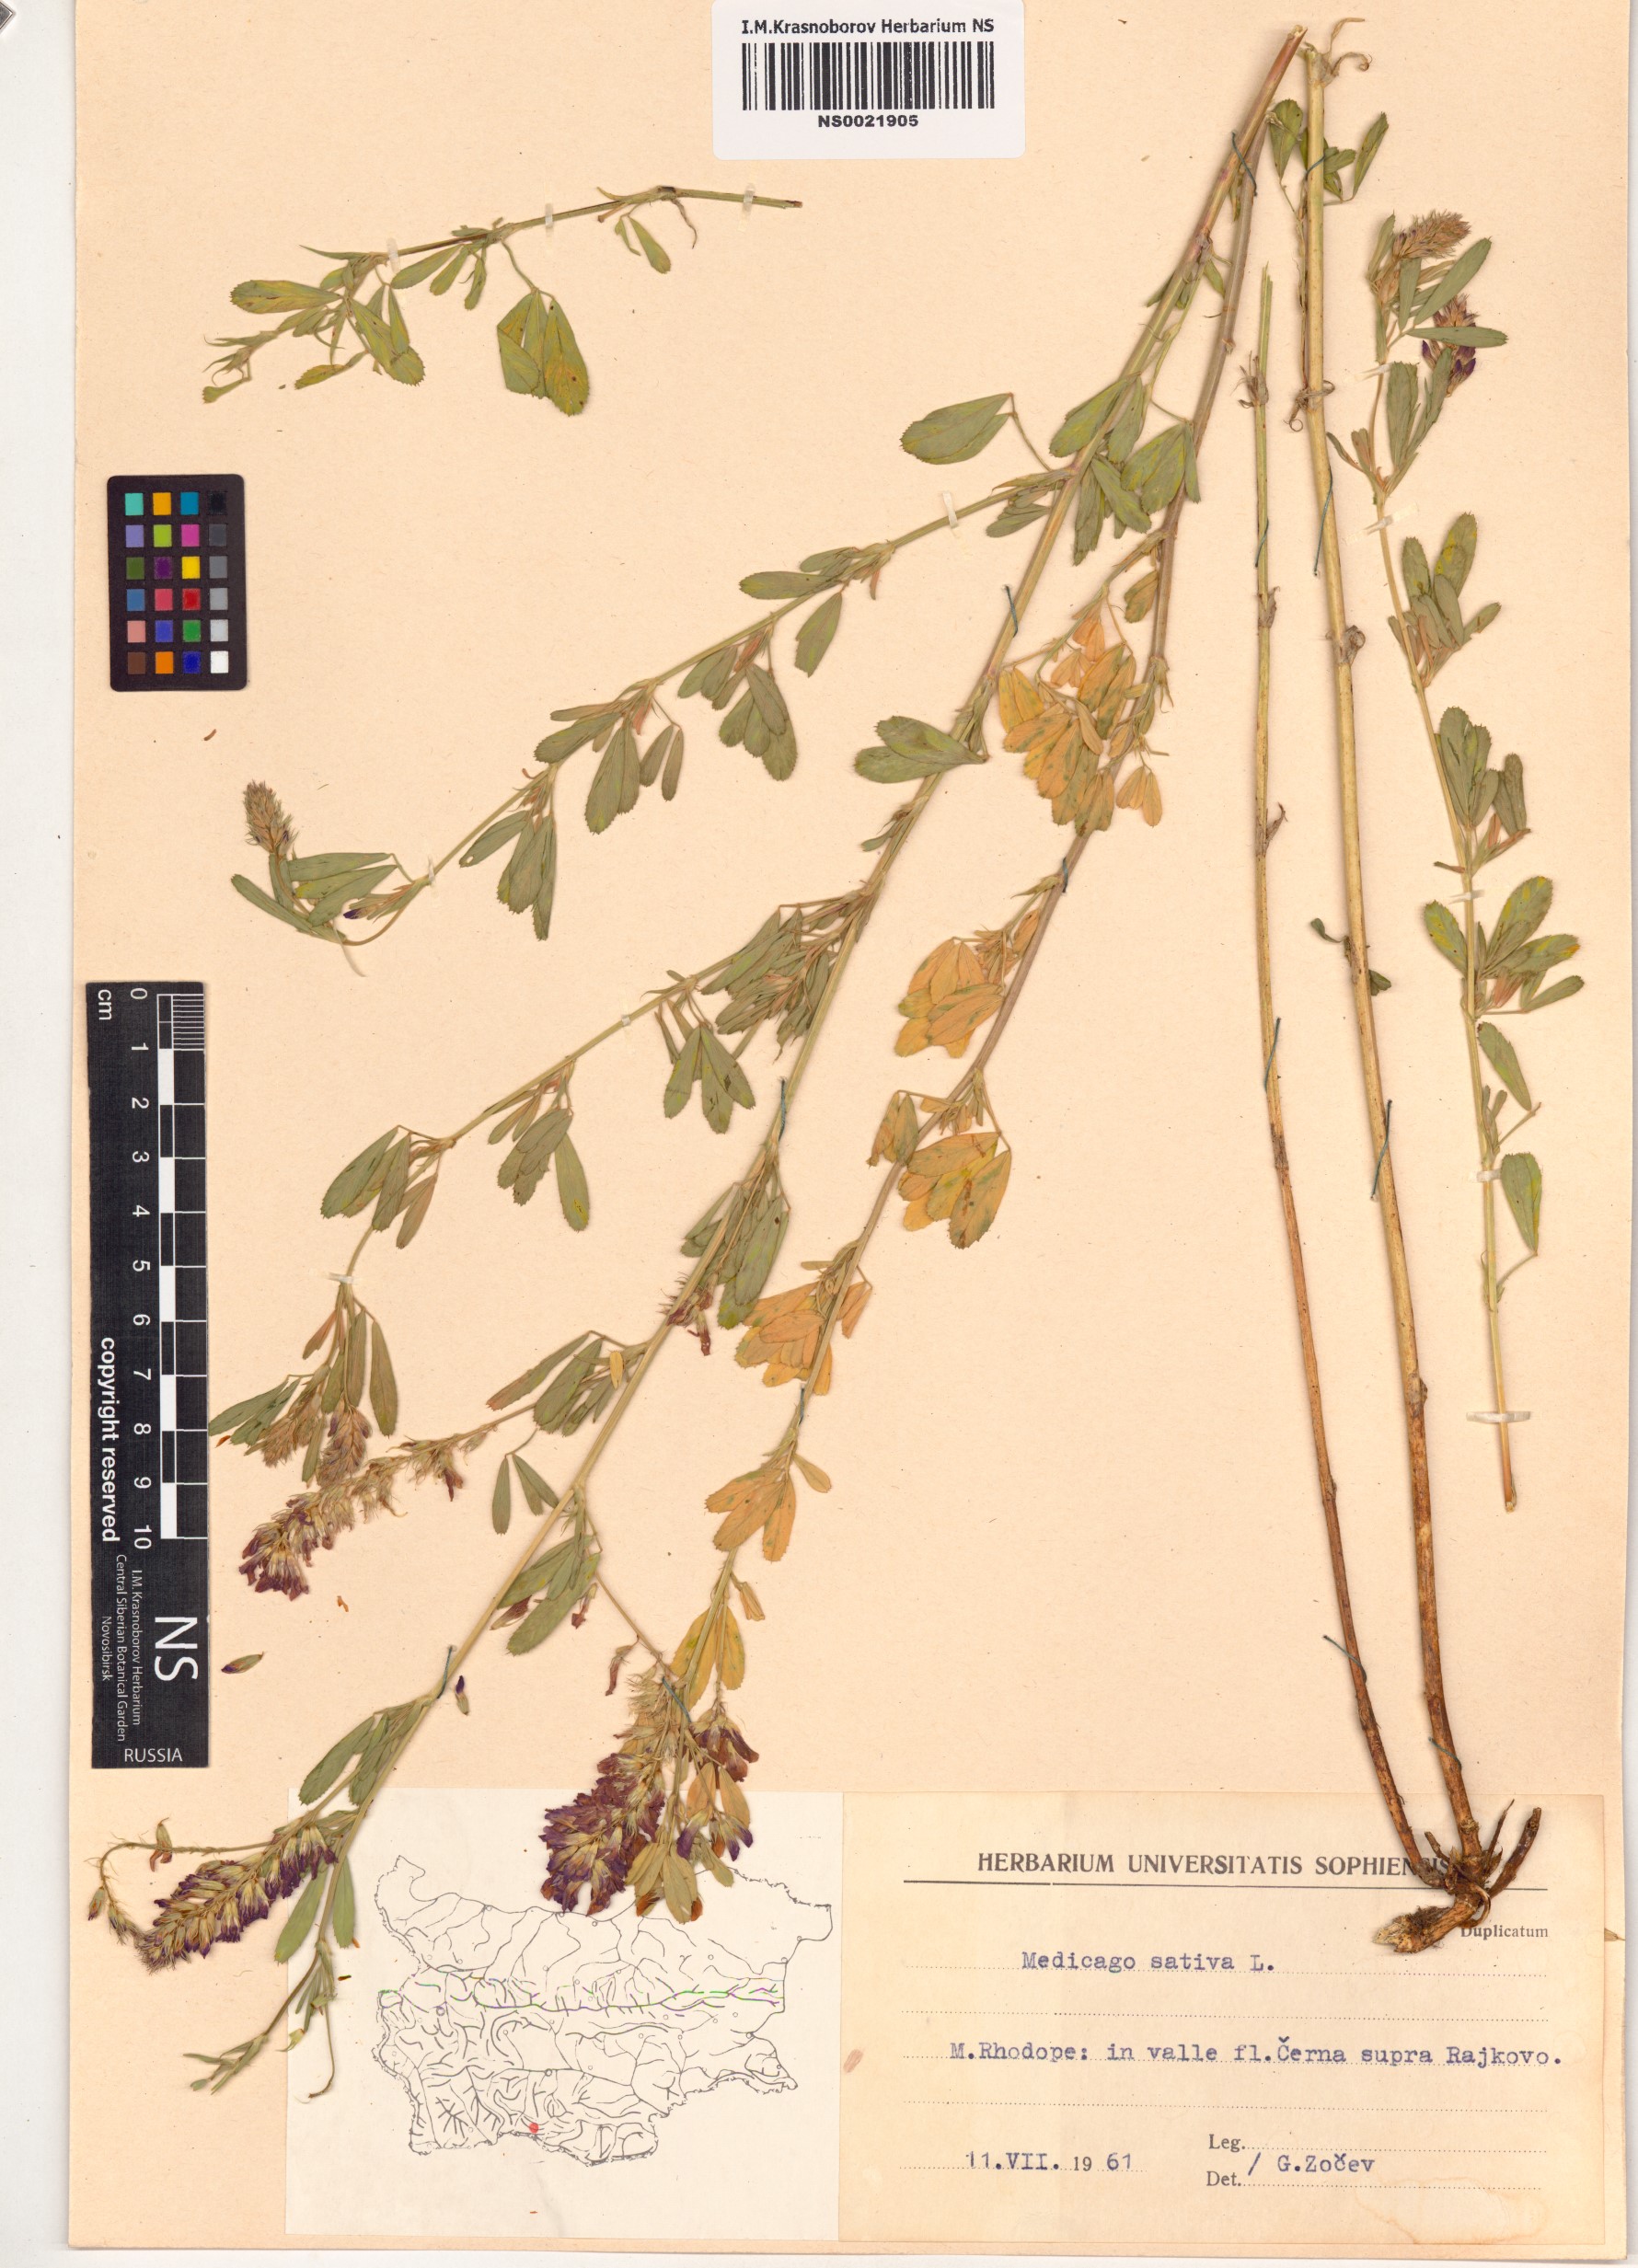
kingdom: Plantae
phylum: Tracheophyta
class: Magnoliopsida
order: Fabales
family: Fabaceae
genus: Medicago
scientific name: Medicago sativa
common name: Alfalfa
